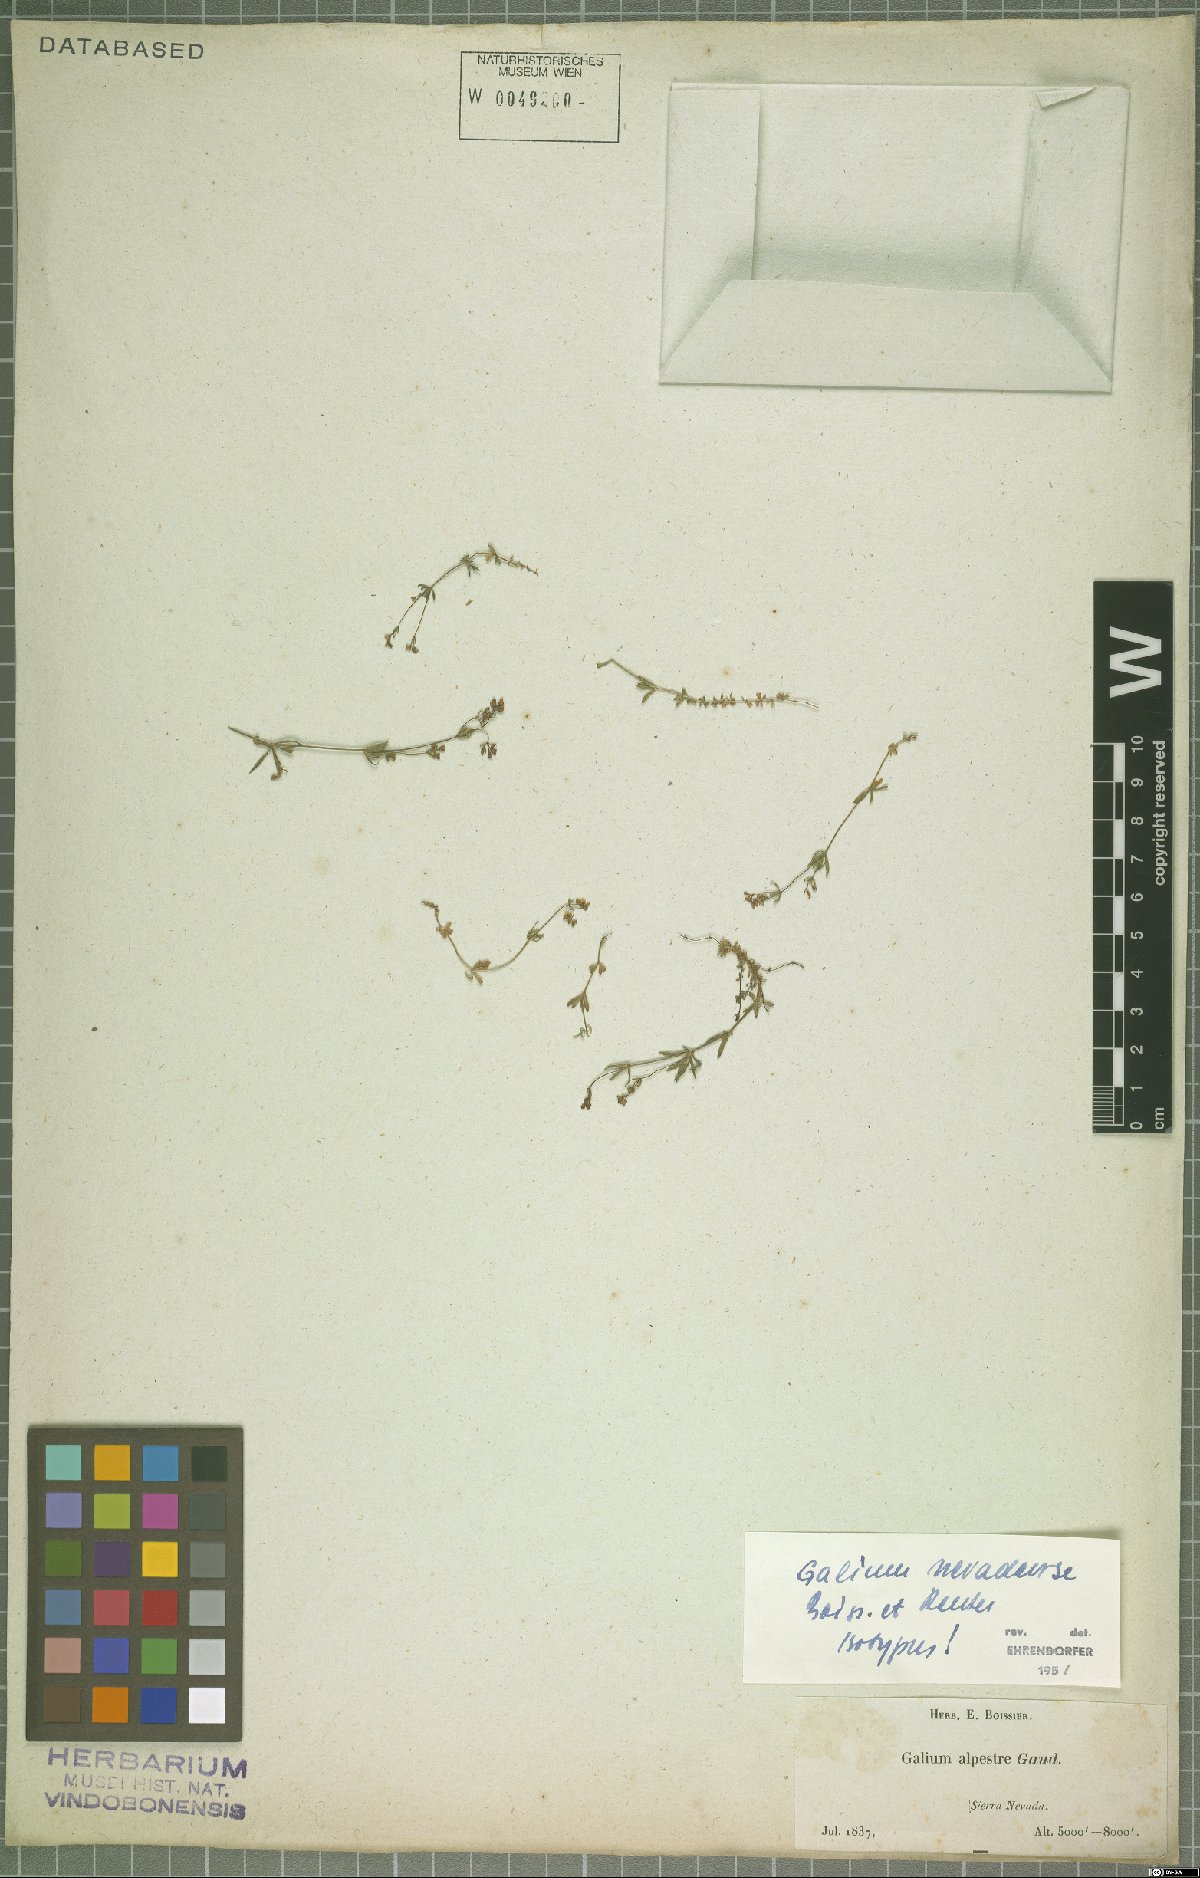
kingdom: Plantae
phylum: Tracheophyta
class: Magnoliopsida
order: Gentianales
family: Rubiaceae
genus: Galium
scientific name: Galium nevadense
